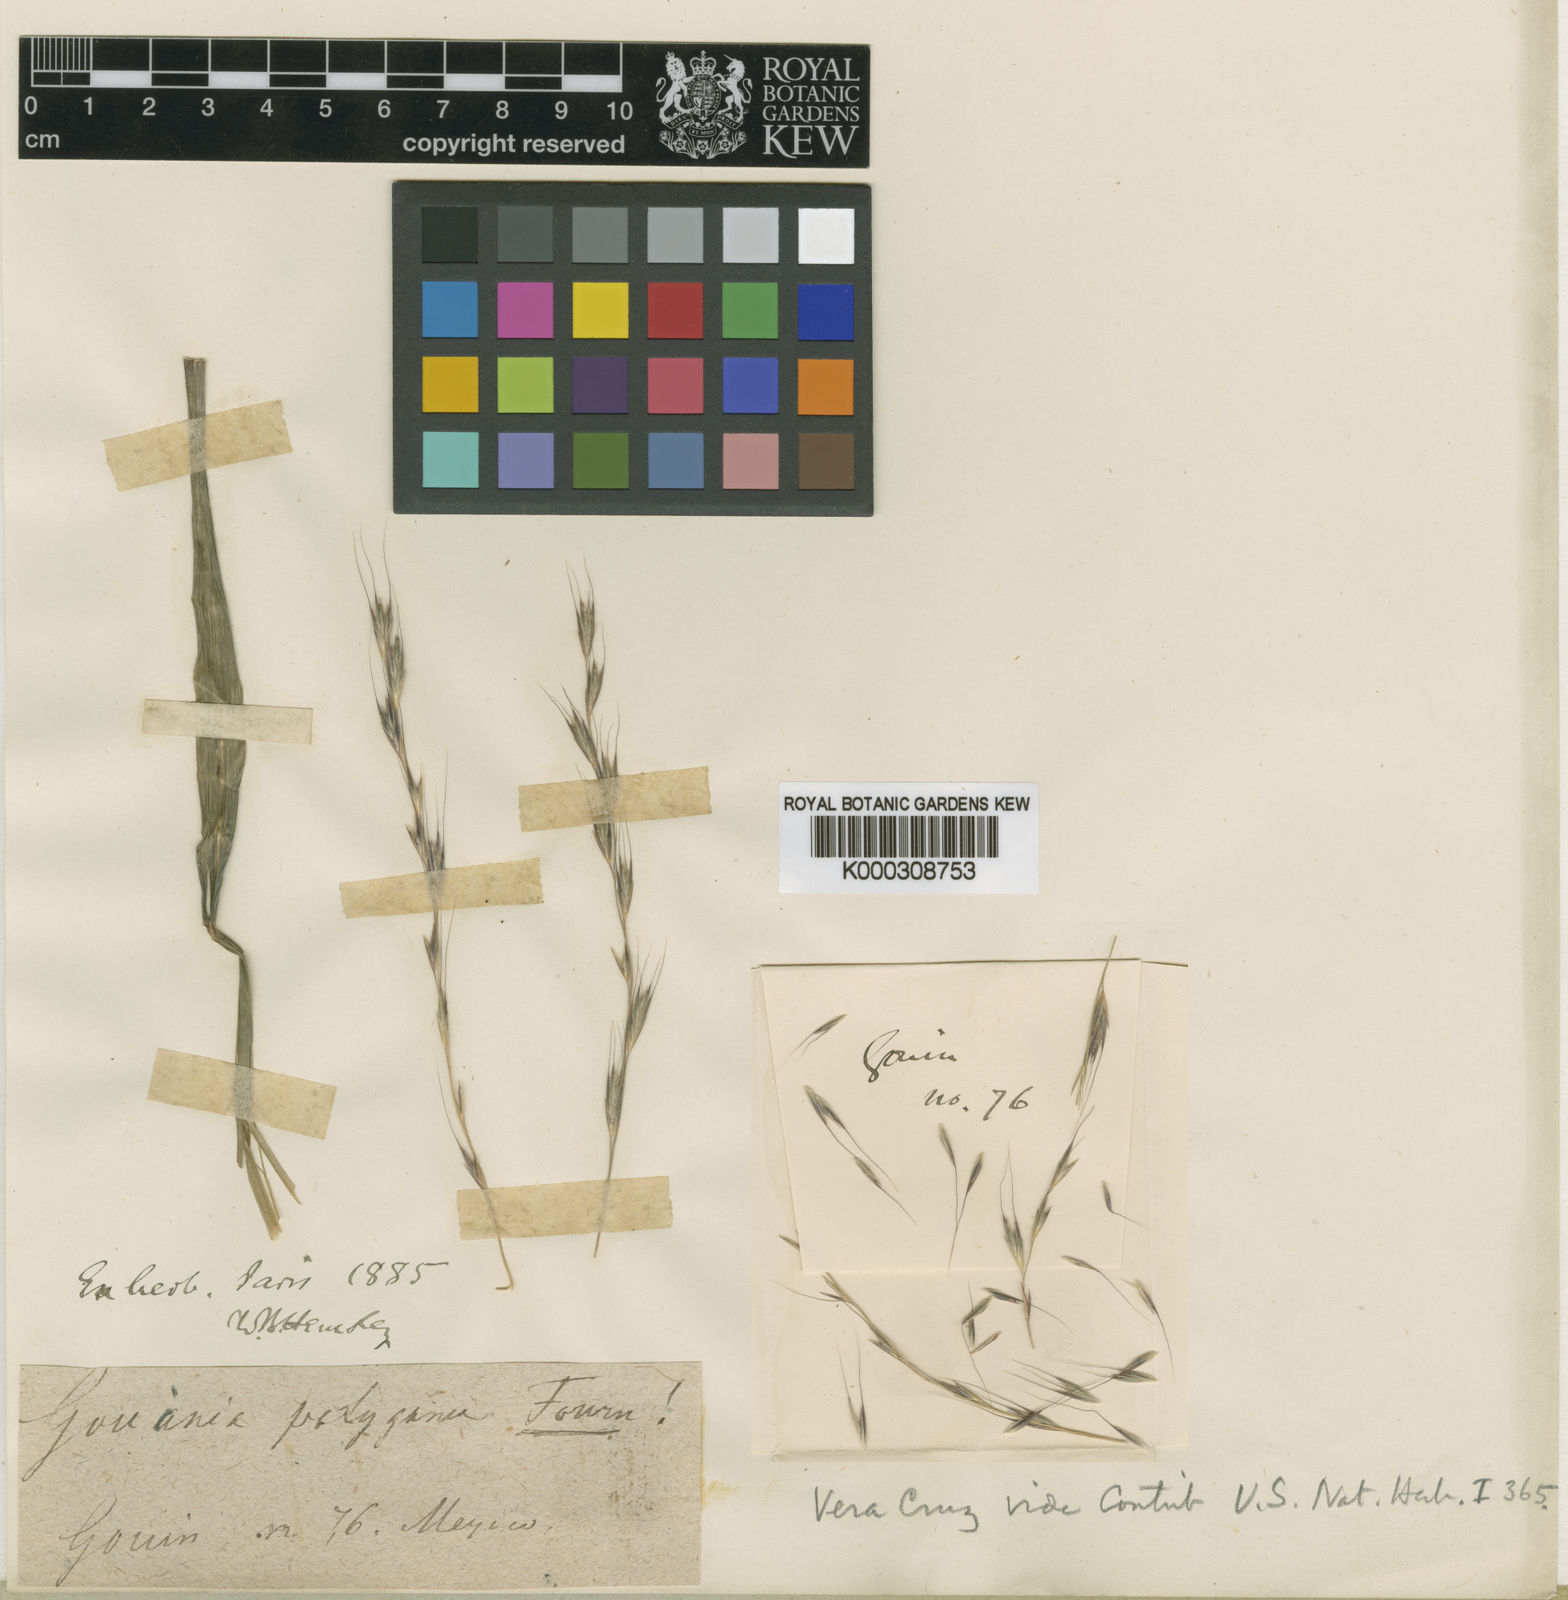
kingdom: Plantae
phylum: Tracheophyta
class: Liliopsida
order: Poales
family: Poaceae
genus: Gouinia
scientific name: Gouinia virgata
